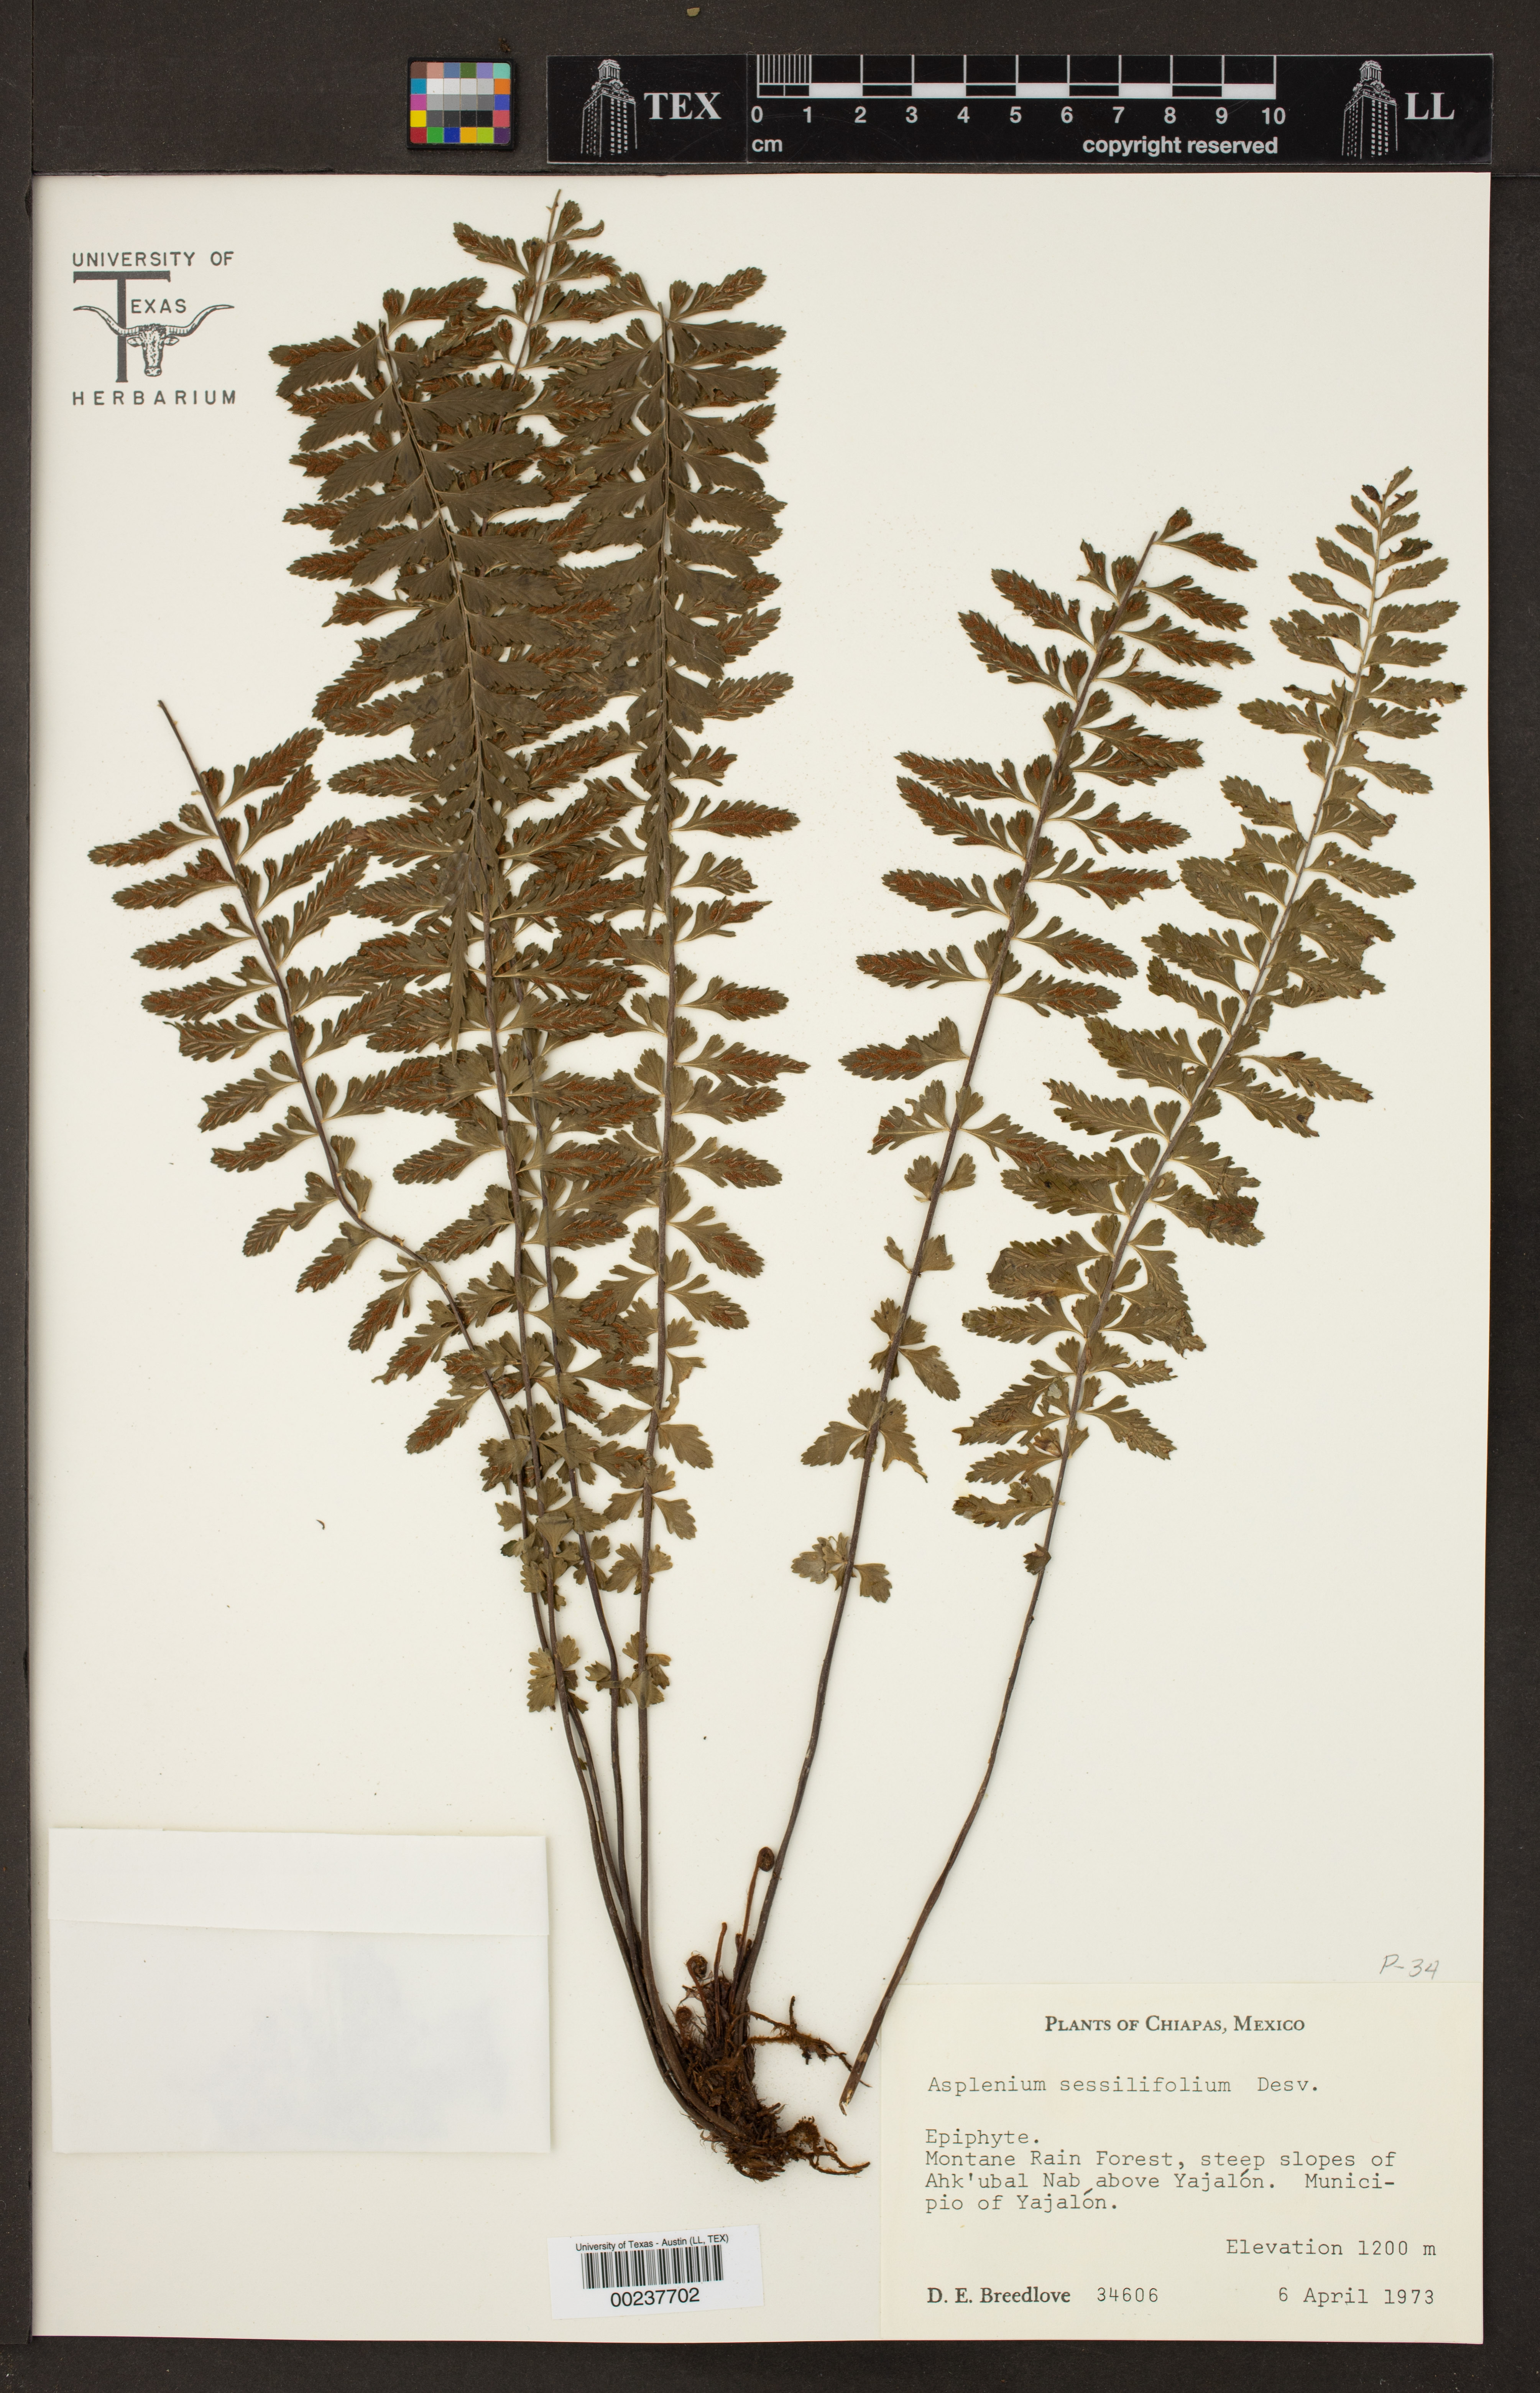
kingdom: Plantae
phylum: Tracheophyta
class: Polypodiopsida
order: Polypodiales
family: Aspleniaceae
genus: Asplenium
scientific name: Asplenium sessilifolium
